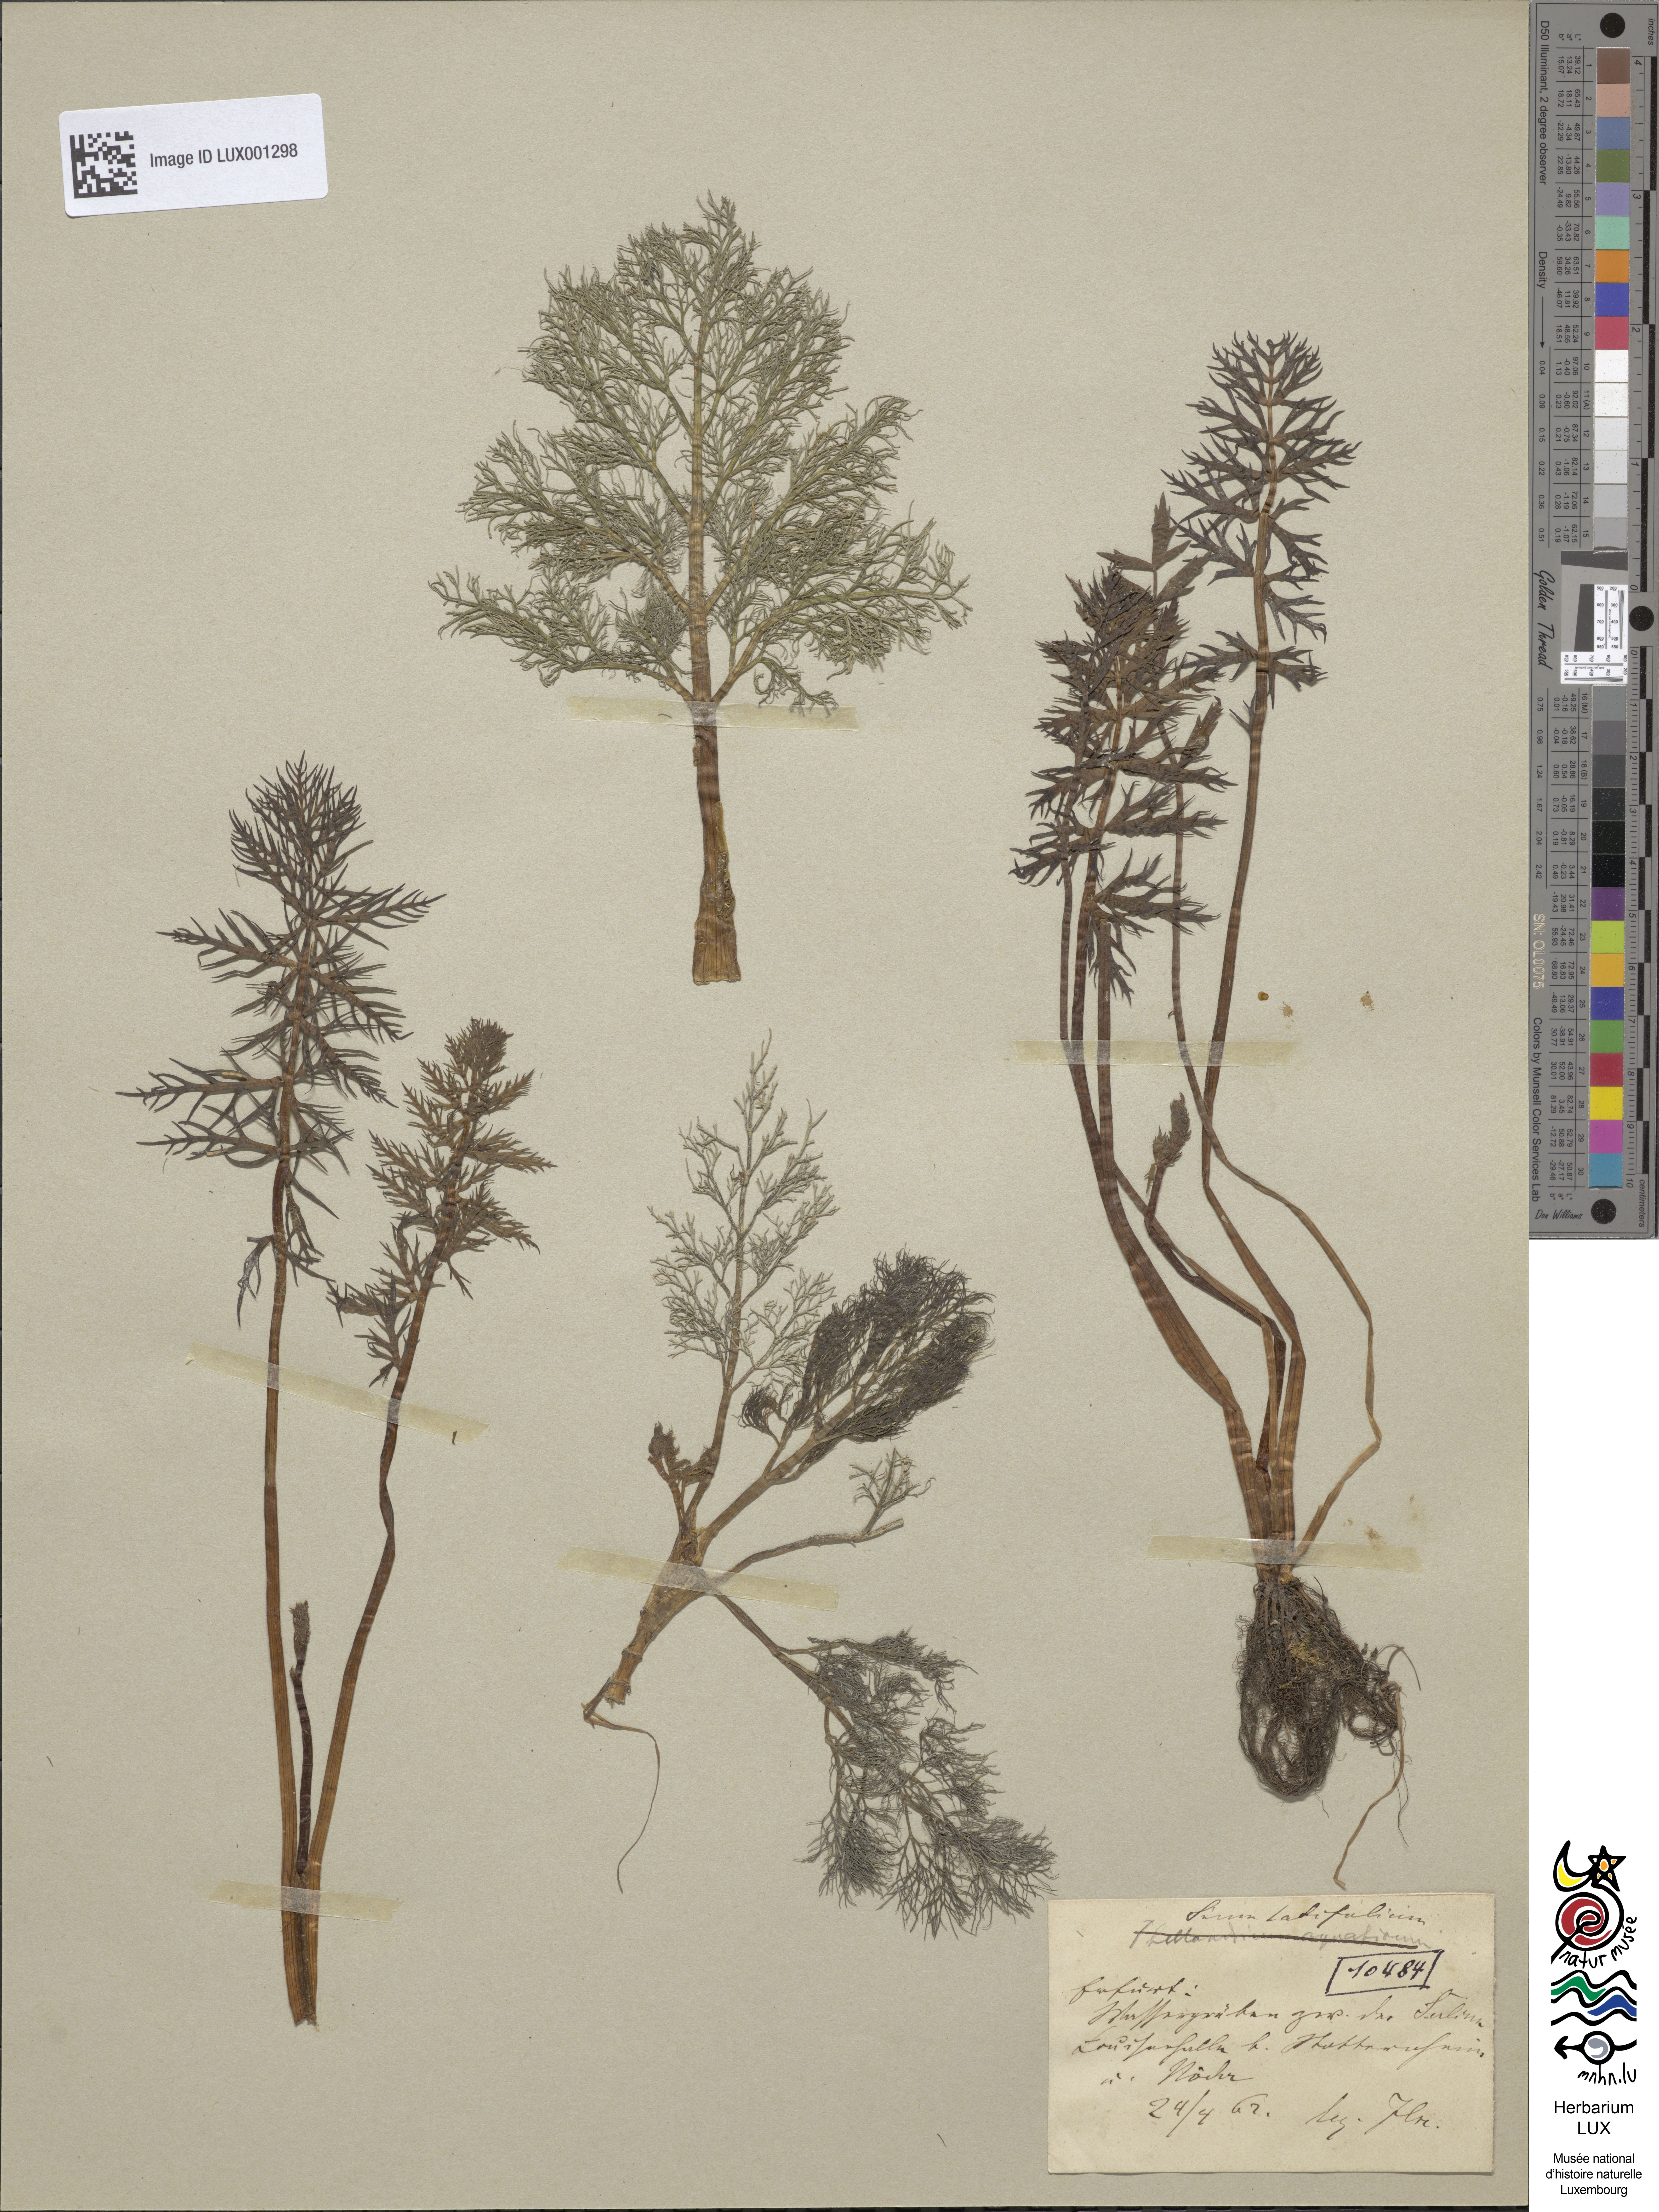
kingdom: Plantae
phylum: Tracheophyta
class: Magnoliopsida
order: Apiales
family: Apiaceae
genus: Sium
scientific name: Sium latifolium
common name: Greater water-parsnip
